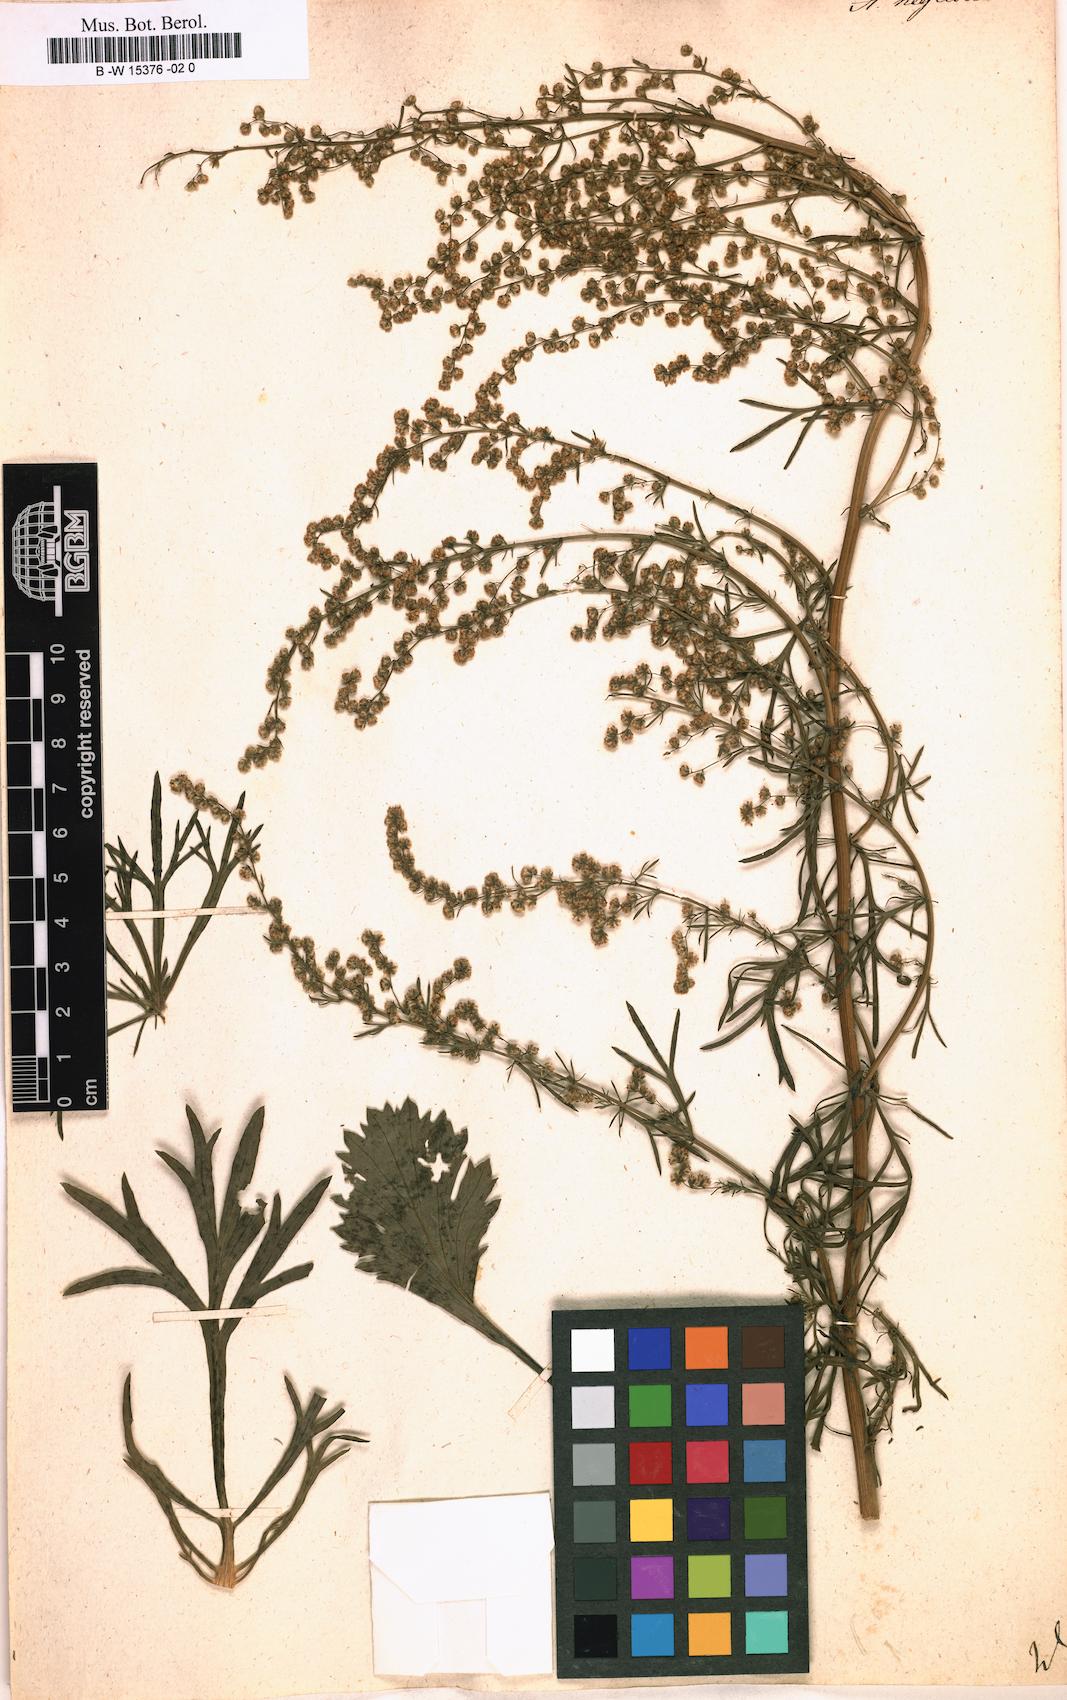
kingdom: Plantae
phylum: Tracheophyta
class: Magnoliopsida
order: Asterales
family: Asteraceae
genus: Artemisia
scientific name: Artemisia desertorum
